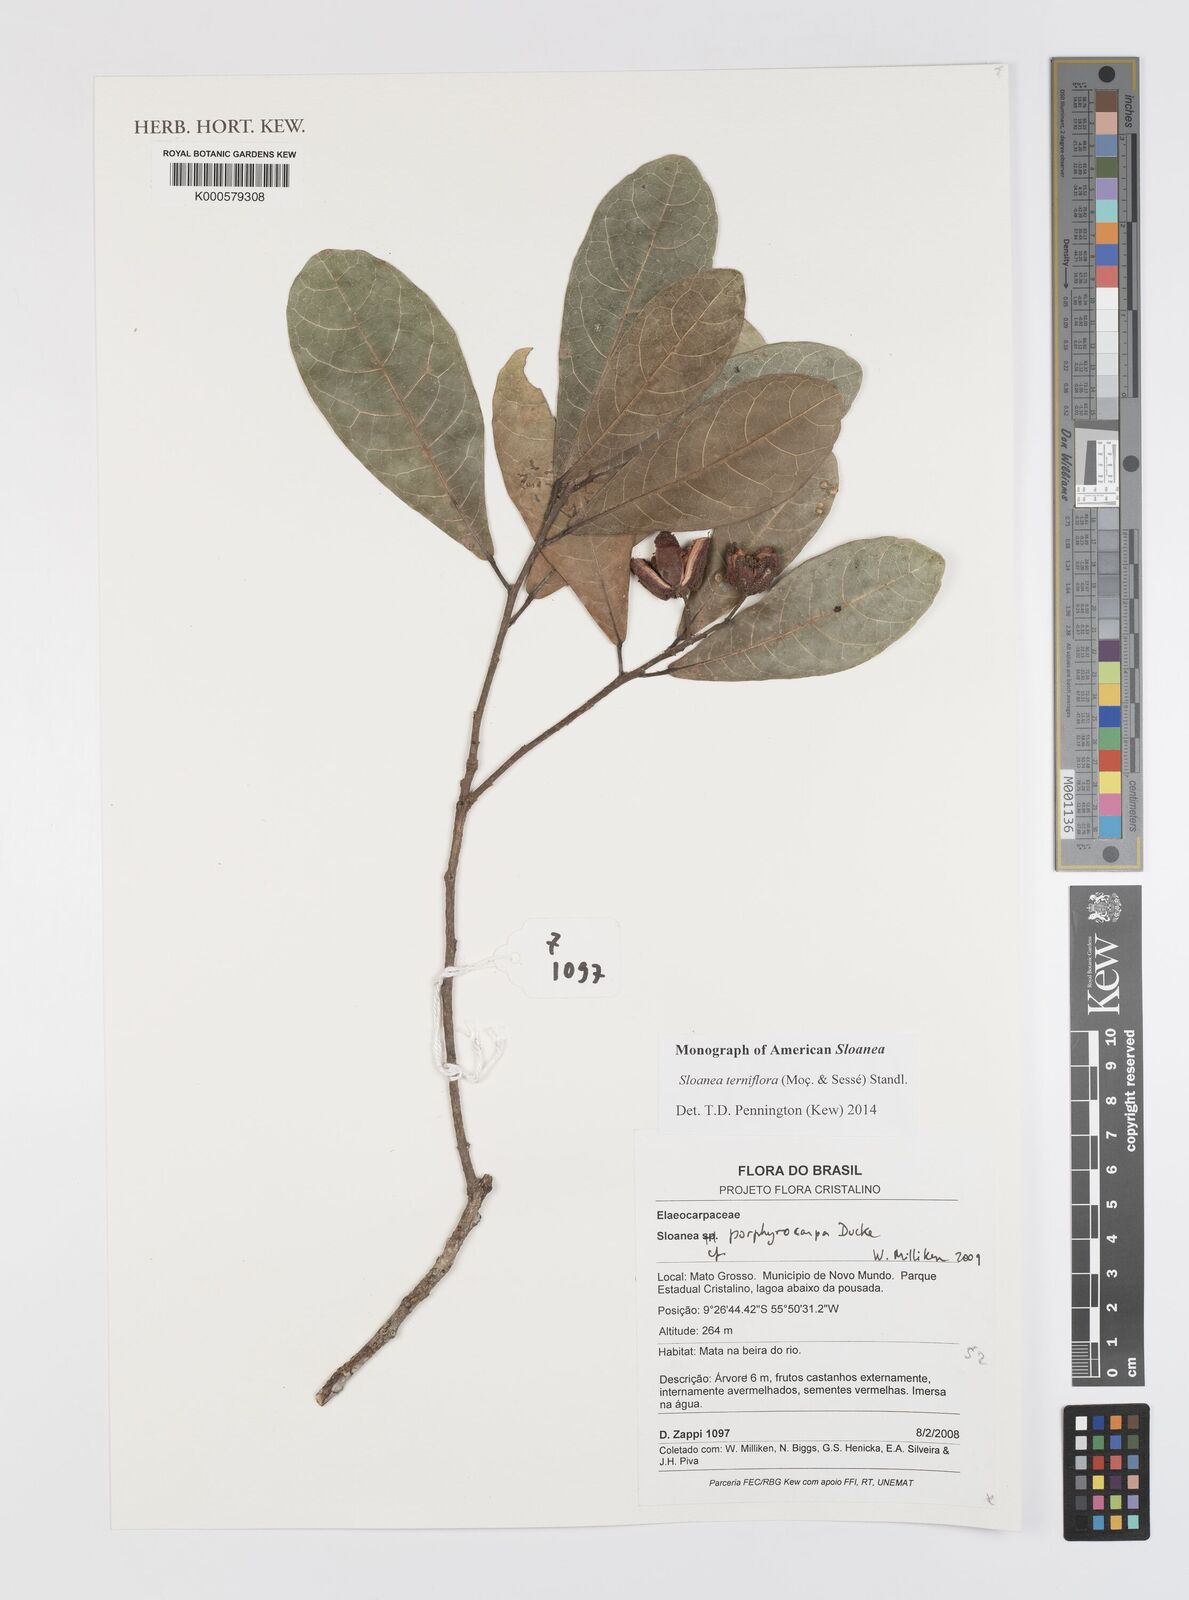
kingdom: Plantae
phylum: Tracheophyta
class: Magnoliopsida
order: Oxalidales
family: Elaeocarpaceae
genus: Sloanea
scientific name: Sloanea terniflora
